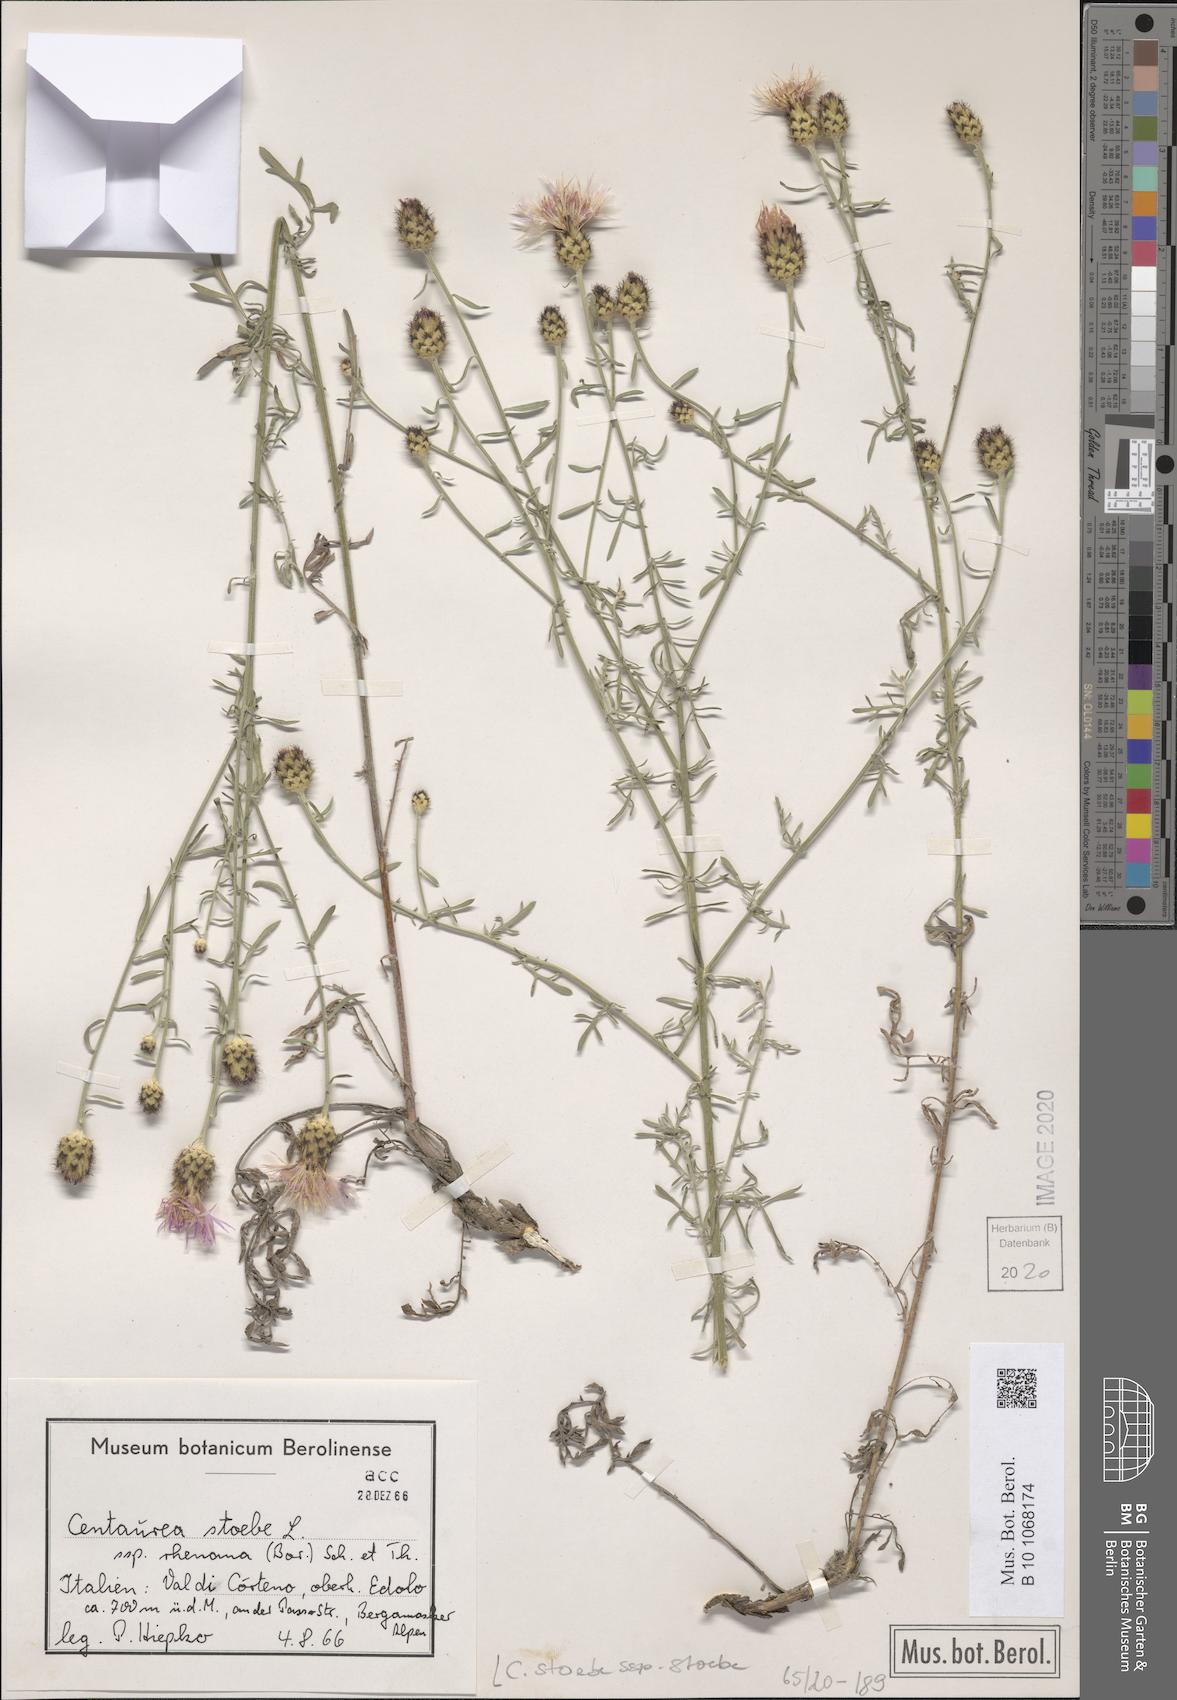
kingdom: Plantae
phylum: Tracheophyta
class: Magnoliopsida
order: Asterales
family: Asteraceae
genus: Centaurea
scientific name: Centaurea stoebe
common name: Spotted knapweed
